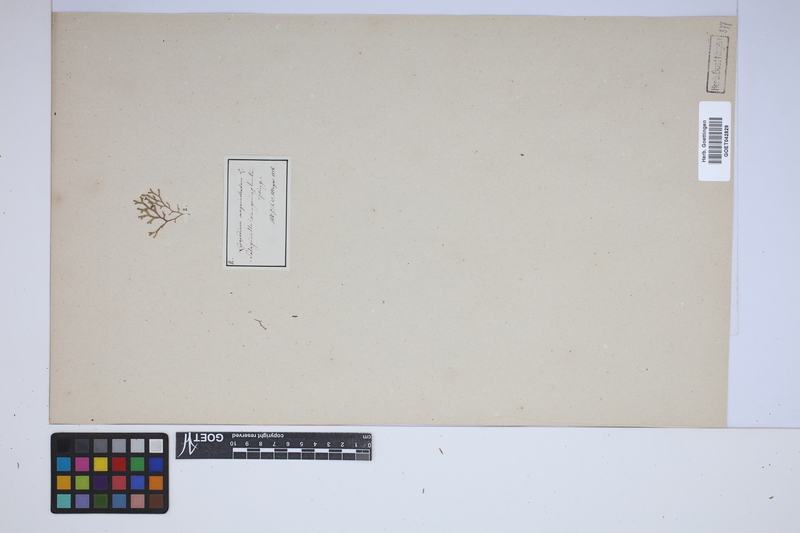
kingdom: Plantae
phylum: Tracheophyta
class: Lycopodiopsida
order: Selaginellales
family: Selaginellaceae
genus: Selaginella
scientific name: Selaginella sanguinolenta
